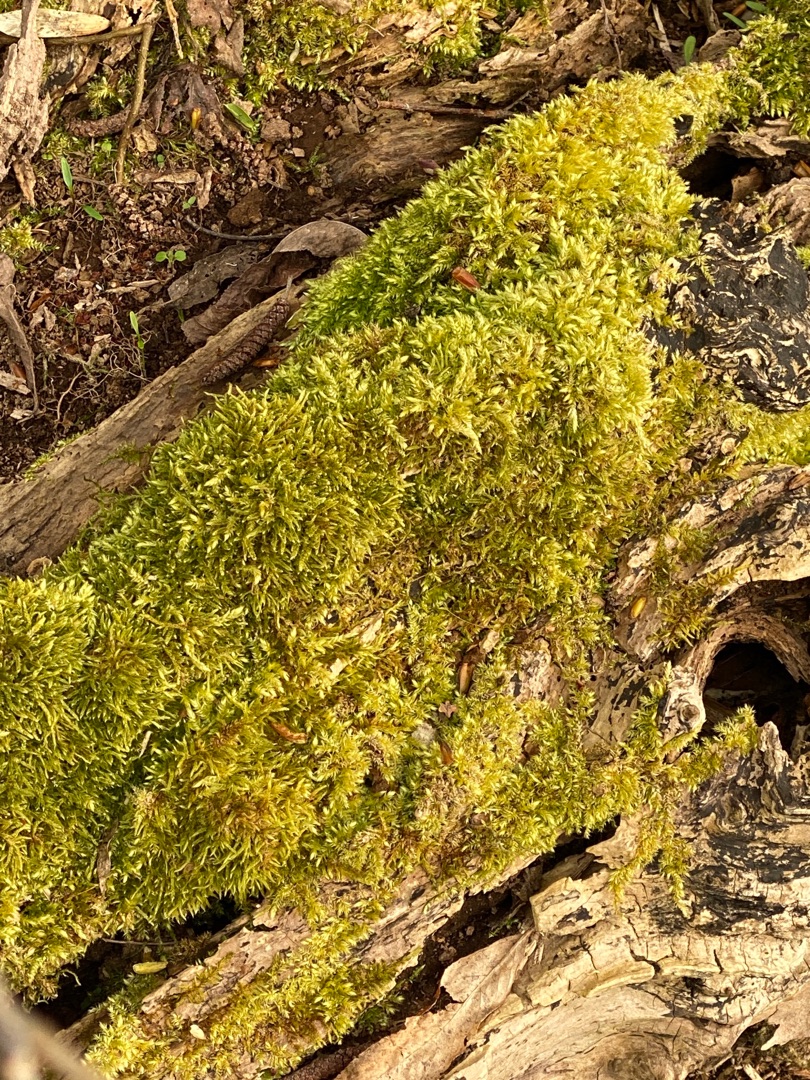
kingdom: Plantae
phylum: Bryophyta
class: Bryopsida
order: Hypnales
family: Hypnaceae
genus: Hypnum
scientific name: Hypnum cupressiforme
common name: Almindelig cypresmos
